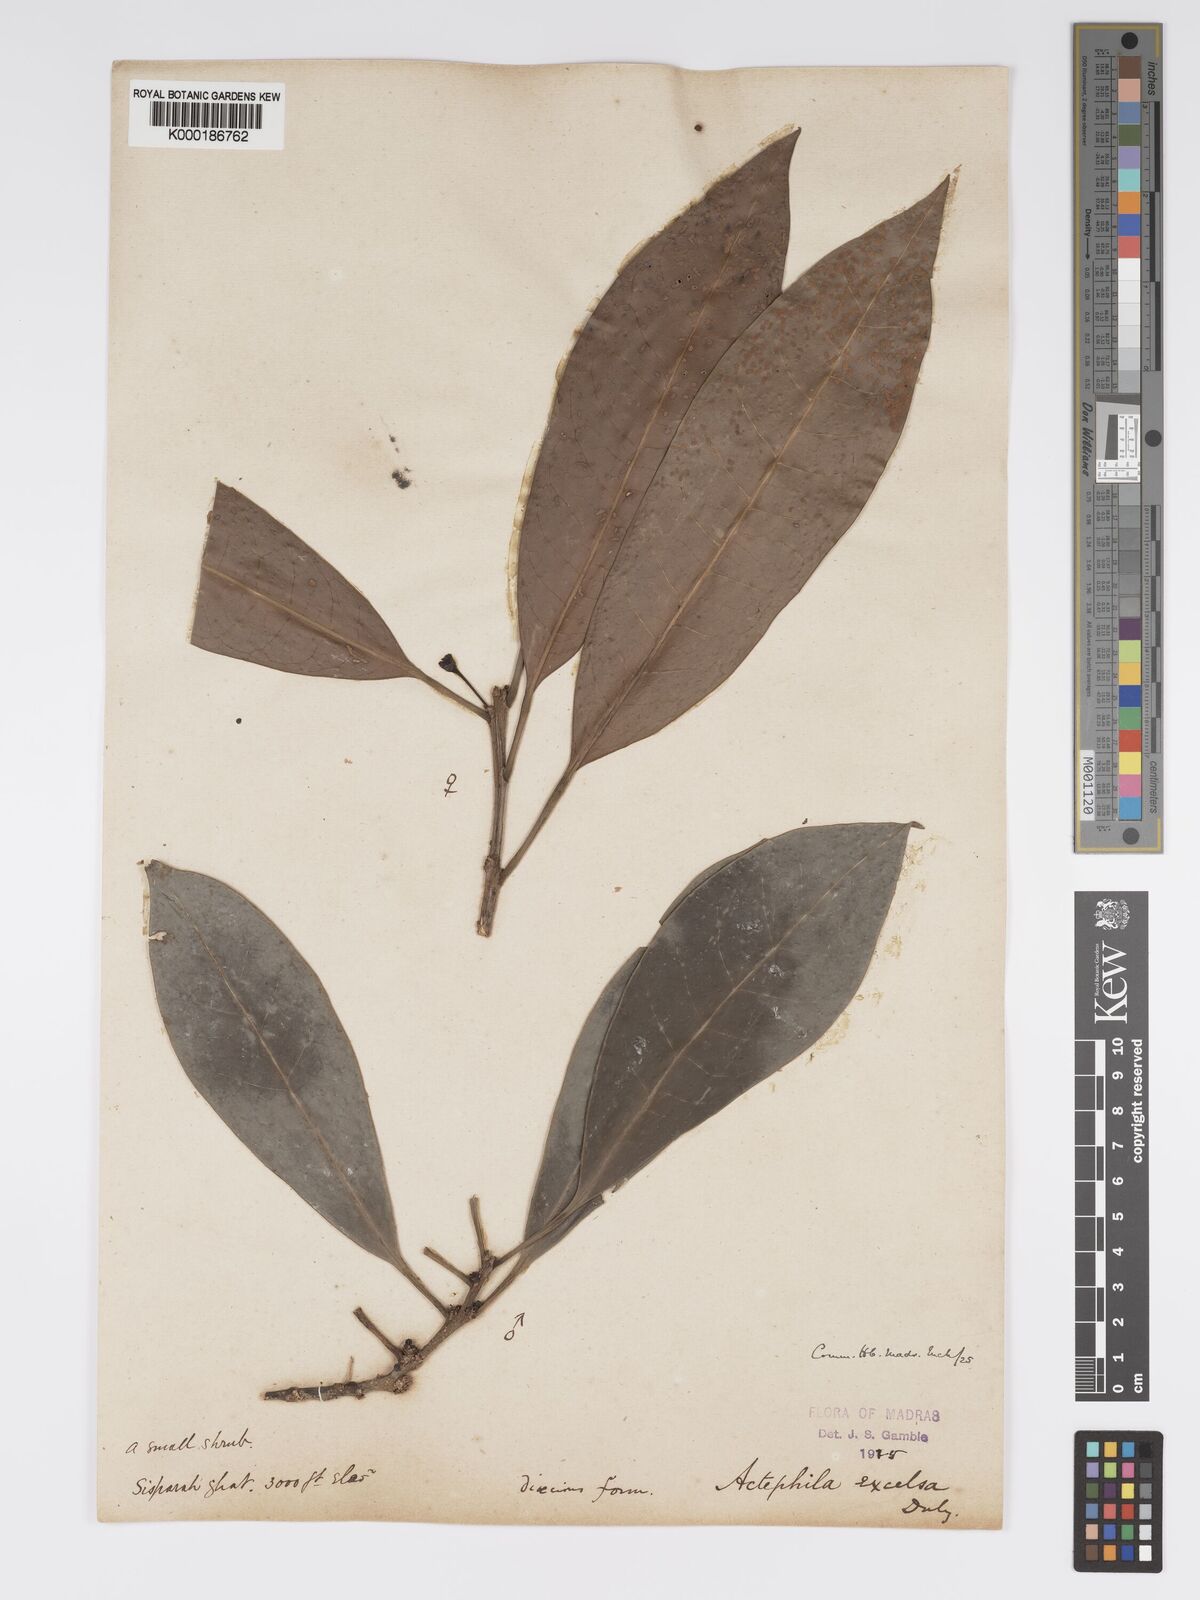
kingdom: Plantae
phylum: Tracheophyta
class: Magnoliopsida
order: Malpighiales
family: Phyllanthaceae
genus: Actephila
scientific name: Actephila excelsa
